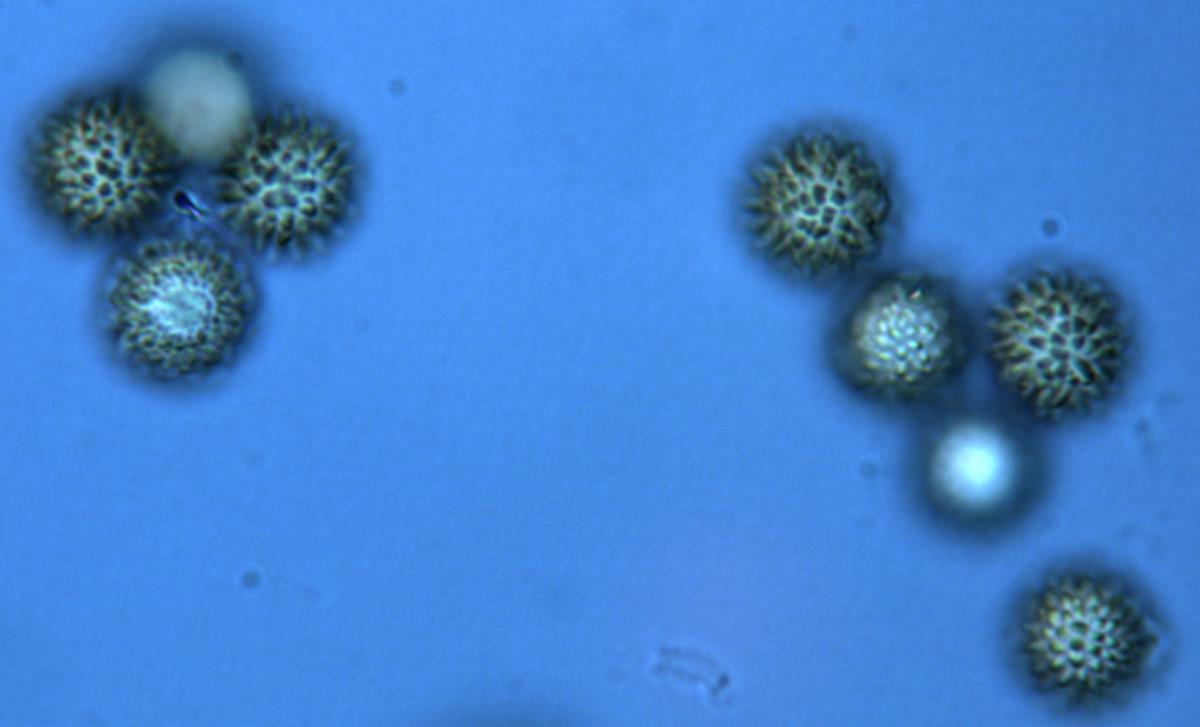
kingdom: Fungi
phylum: Basidiomycota
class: Agaricomycetes
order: Boletales
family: Sclerodermataceae
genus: Pisolithus
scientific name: Pisolithus tinctorius
